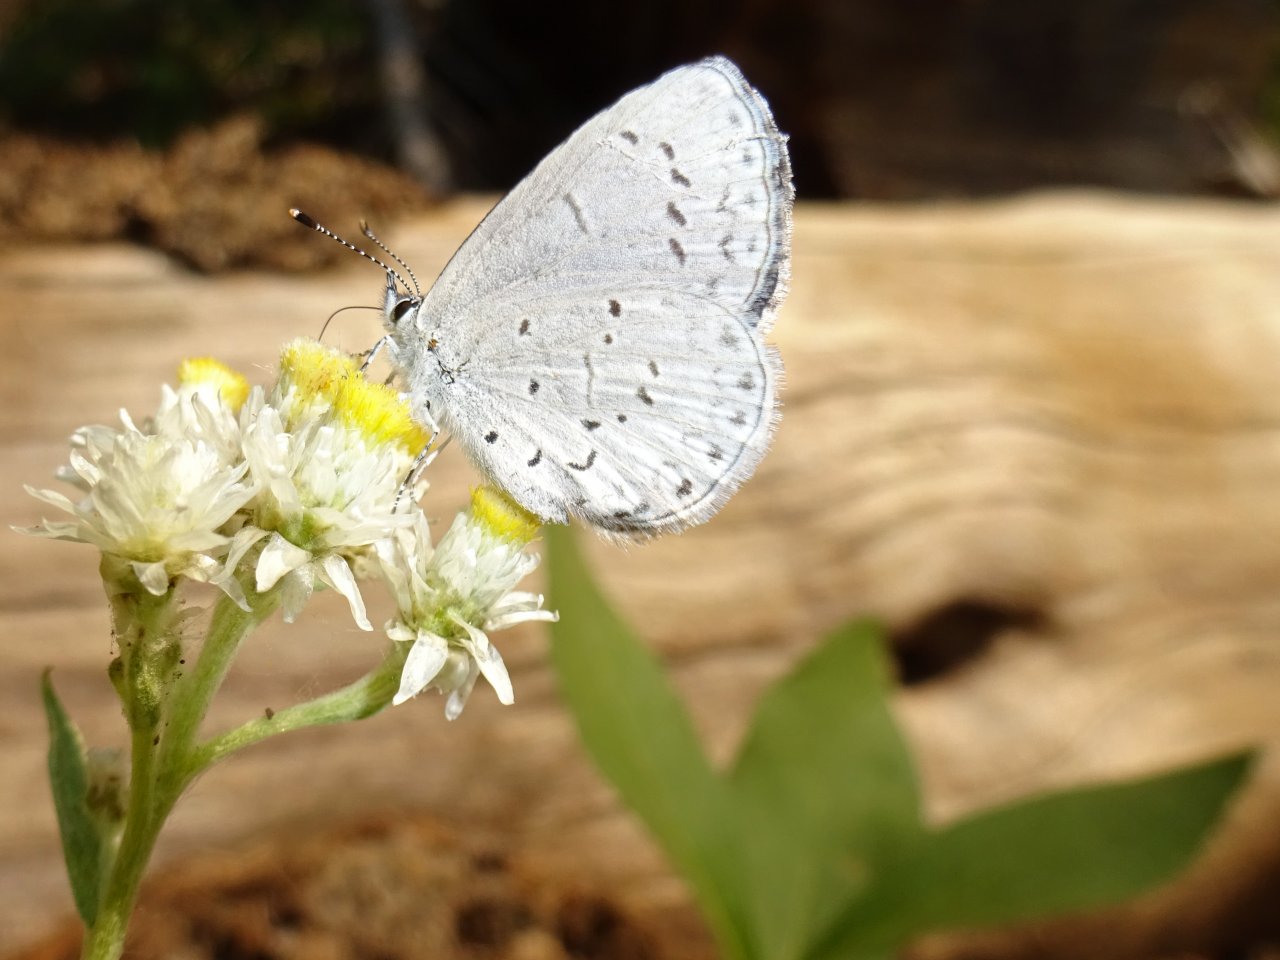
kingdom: Animalia
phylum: Arthropoda
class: Insecta
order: Lepidoptera
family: Lycaenidae
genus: Celastrina
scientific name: Celastrina ladon
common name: Echo Azure
